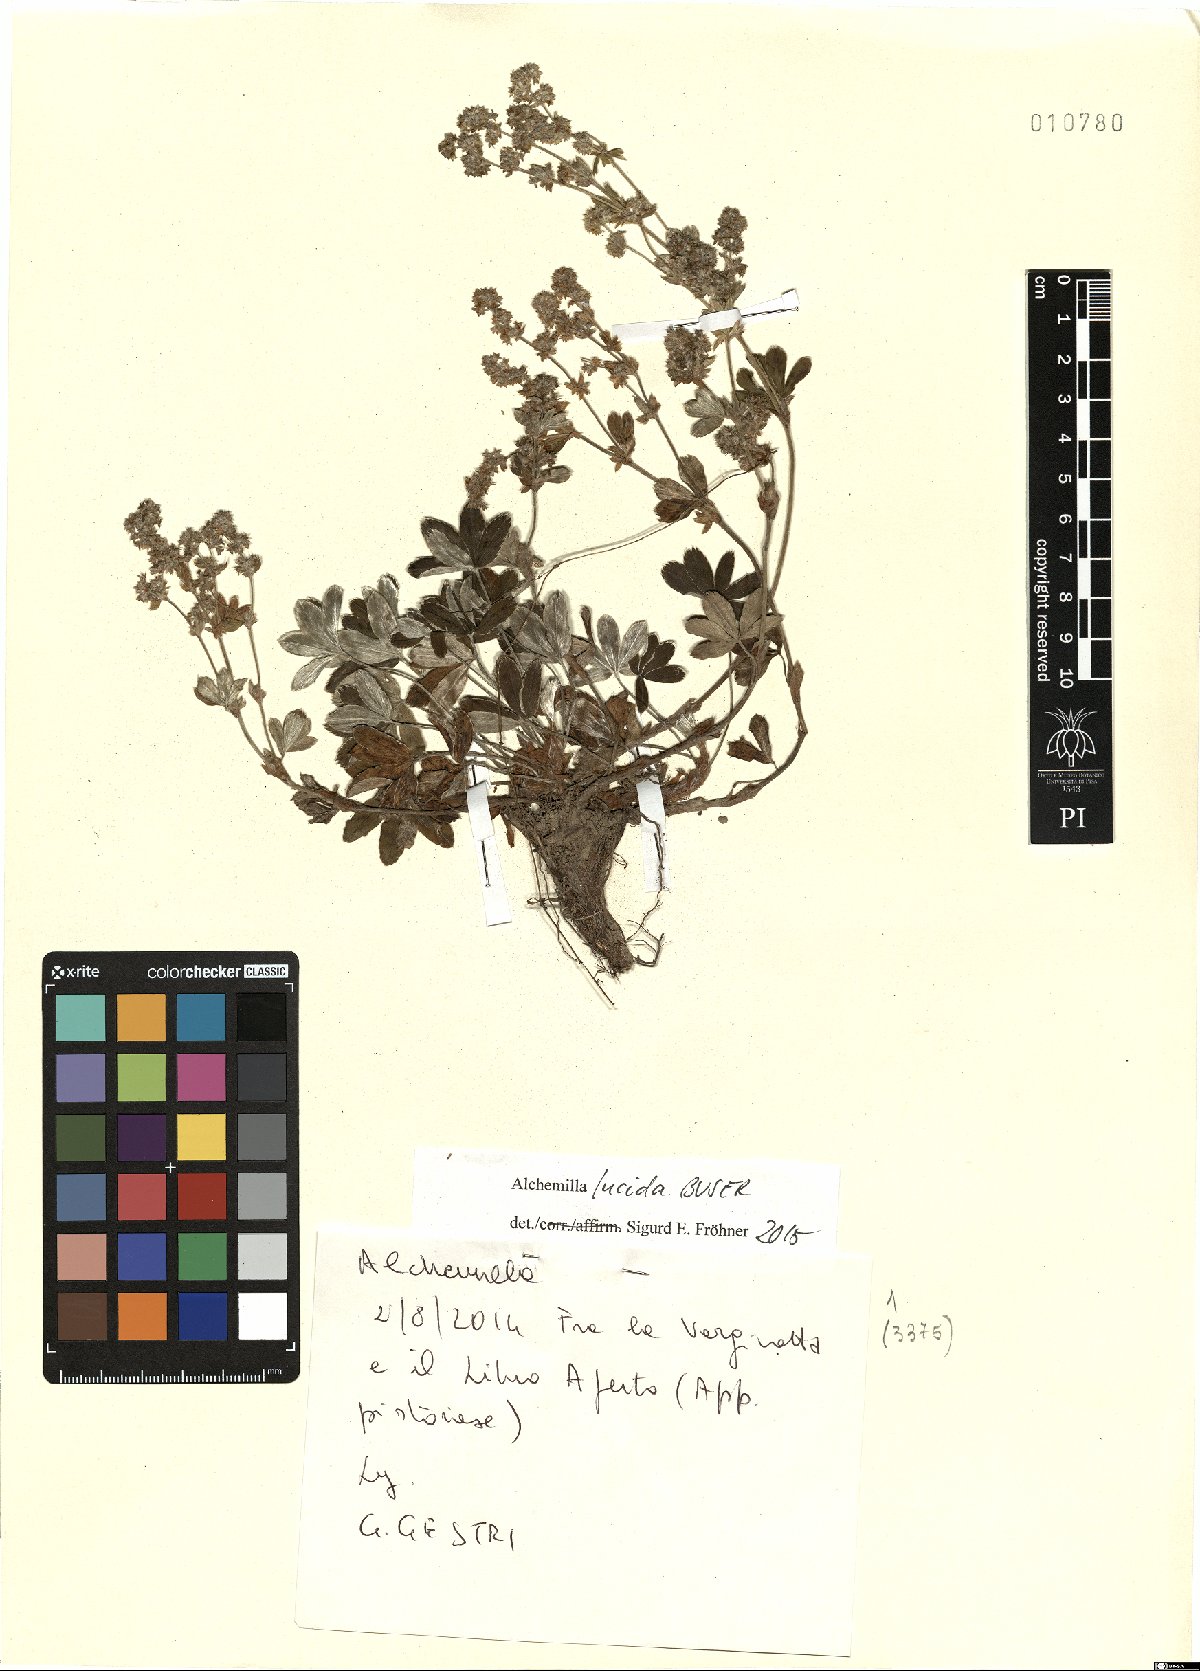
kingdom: Plantae
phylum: Tracheophyta
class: Magnoliopsida
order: Rosales
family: Rosaceae
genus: Alchemilla
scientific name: Alchemilla lucida
